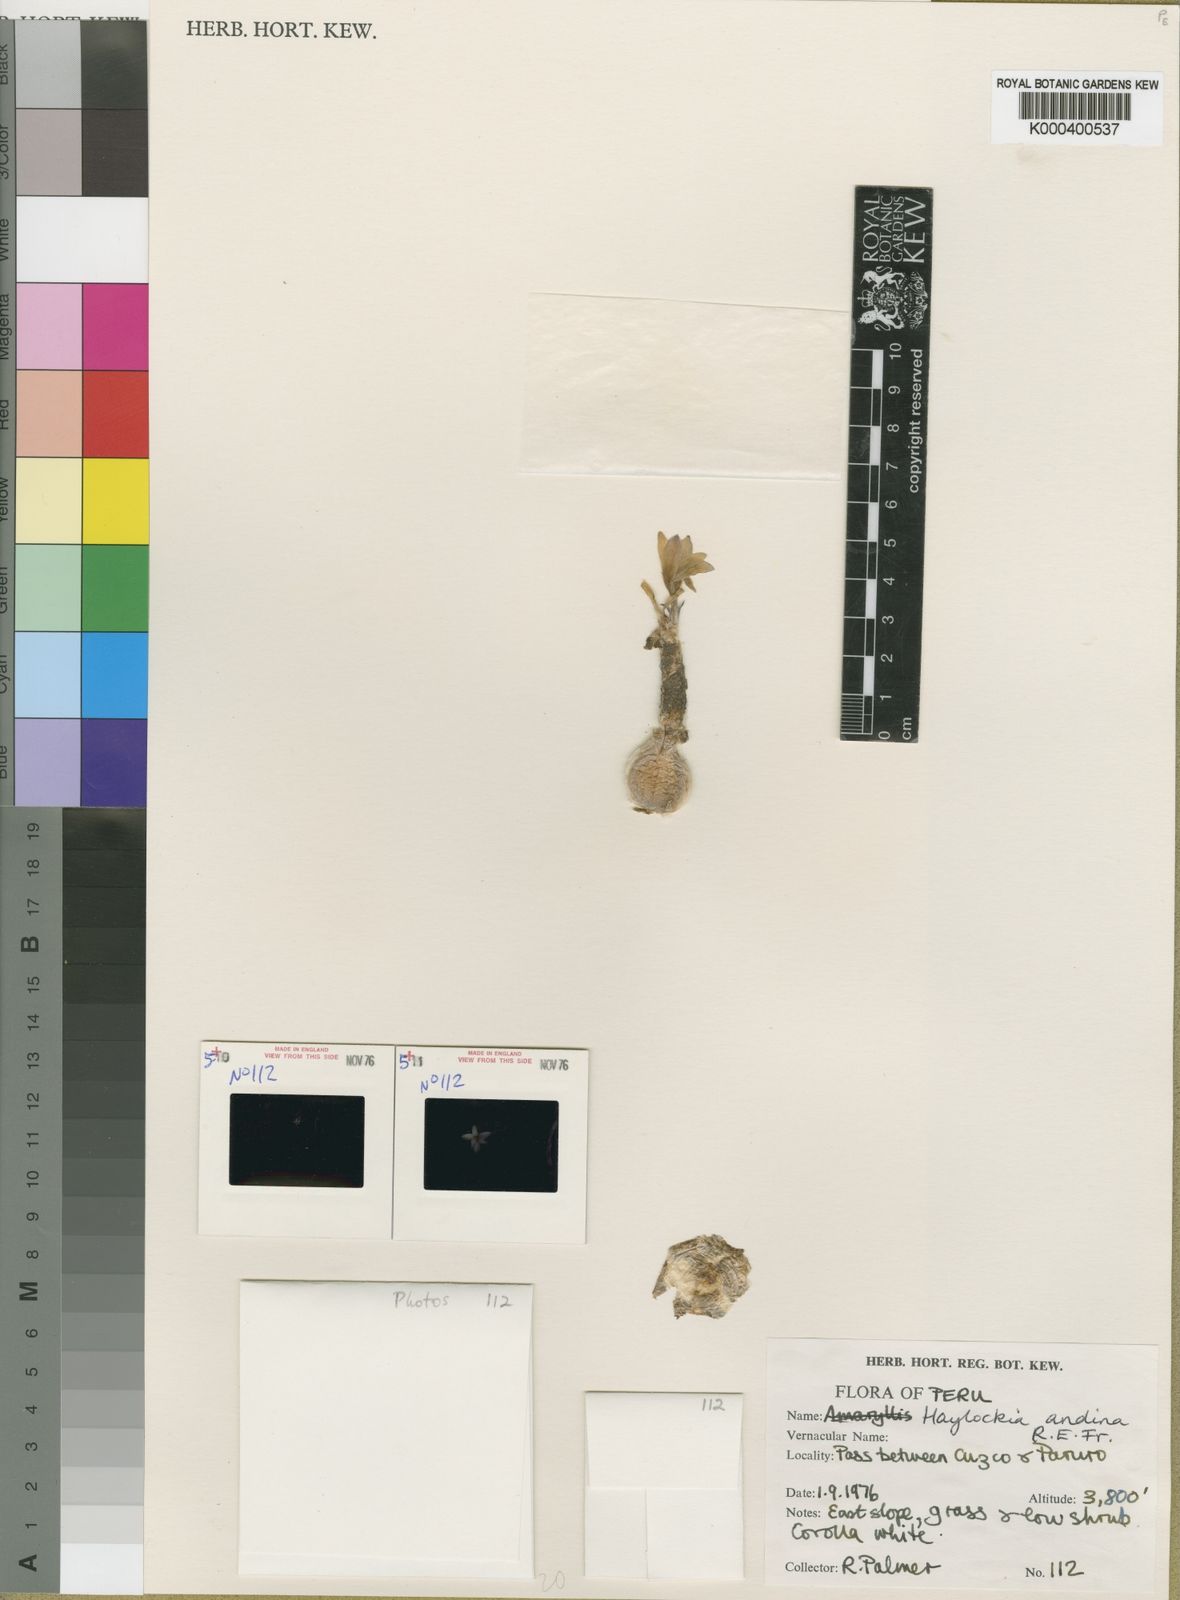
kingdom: Plantae
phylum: Tracheophyta
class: Liliopsida
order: Asparagales
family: Amaryllidaceae
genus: Zephyranthes
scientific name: Zephyranthes andina
